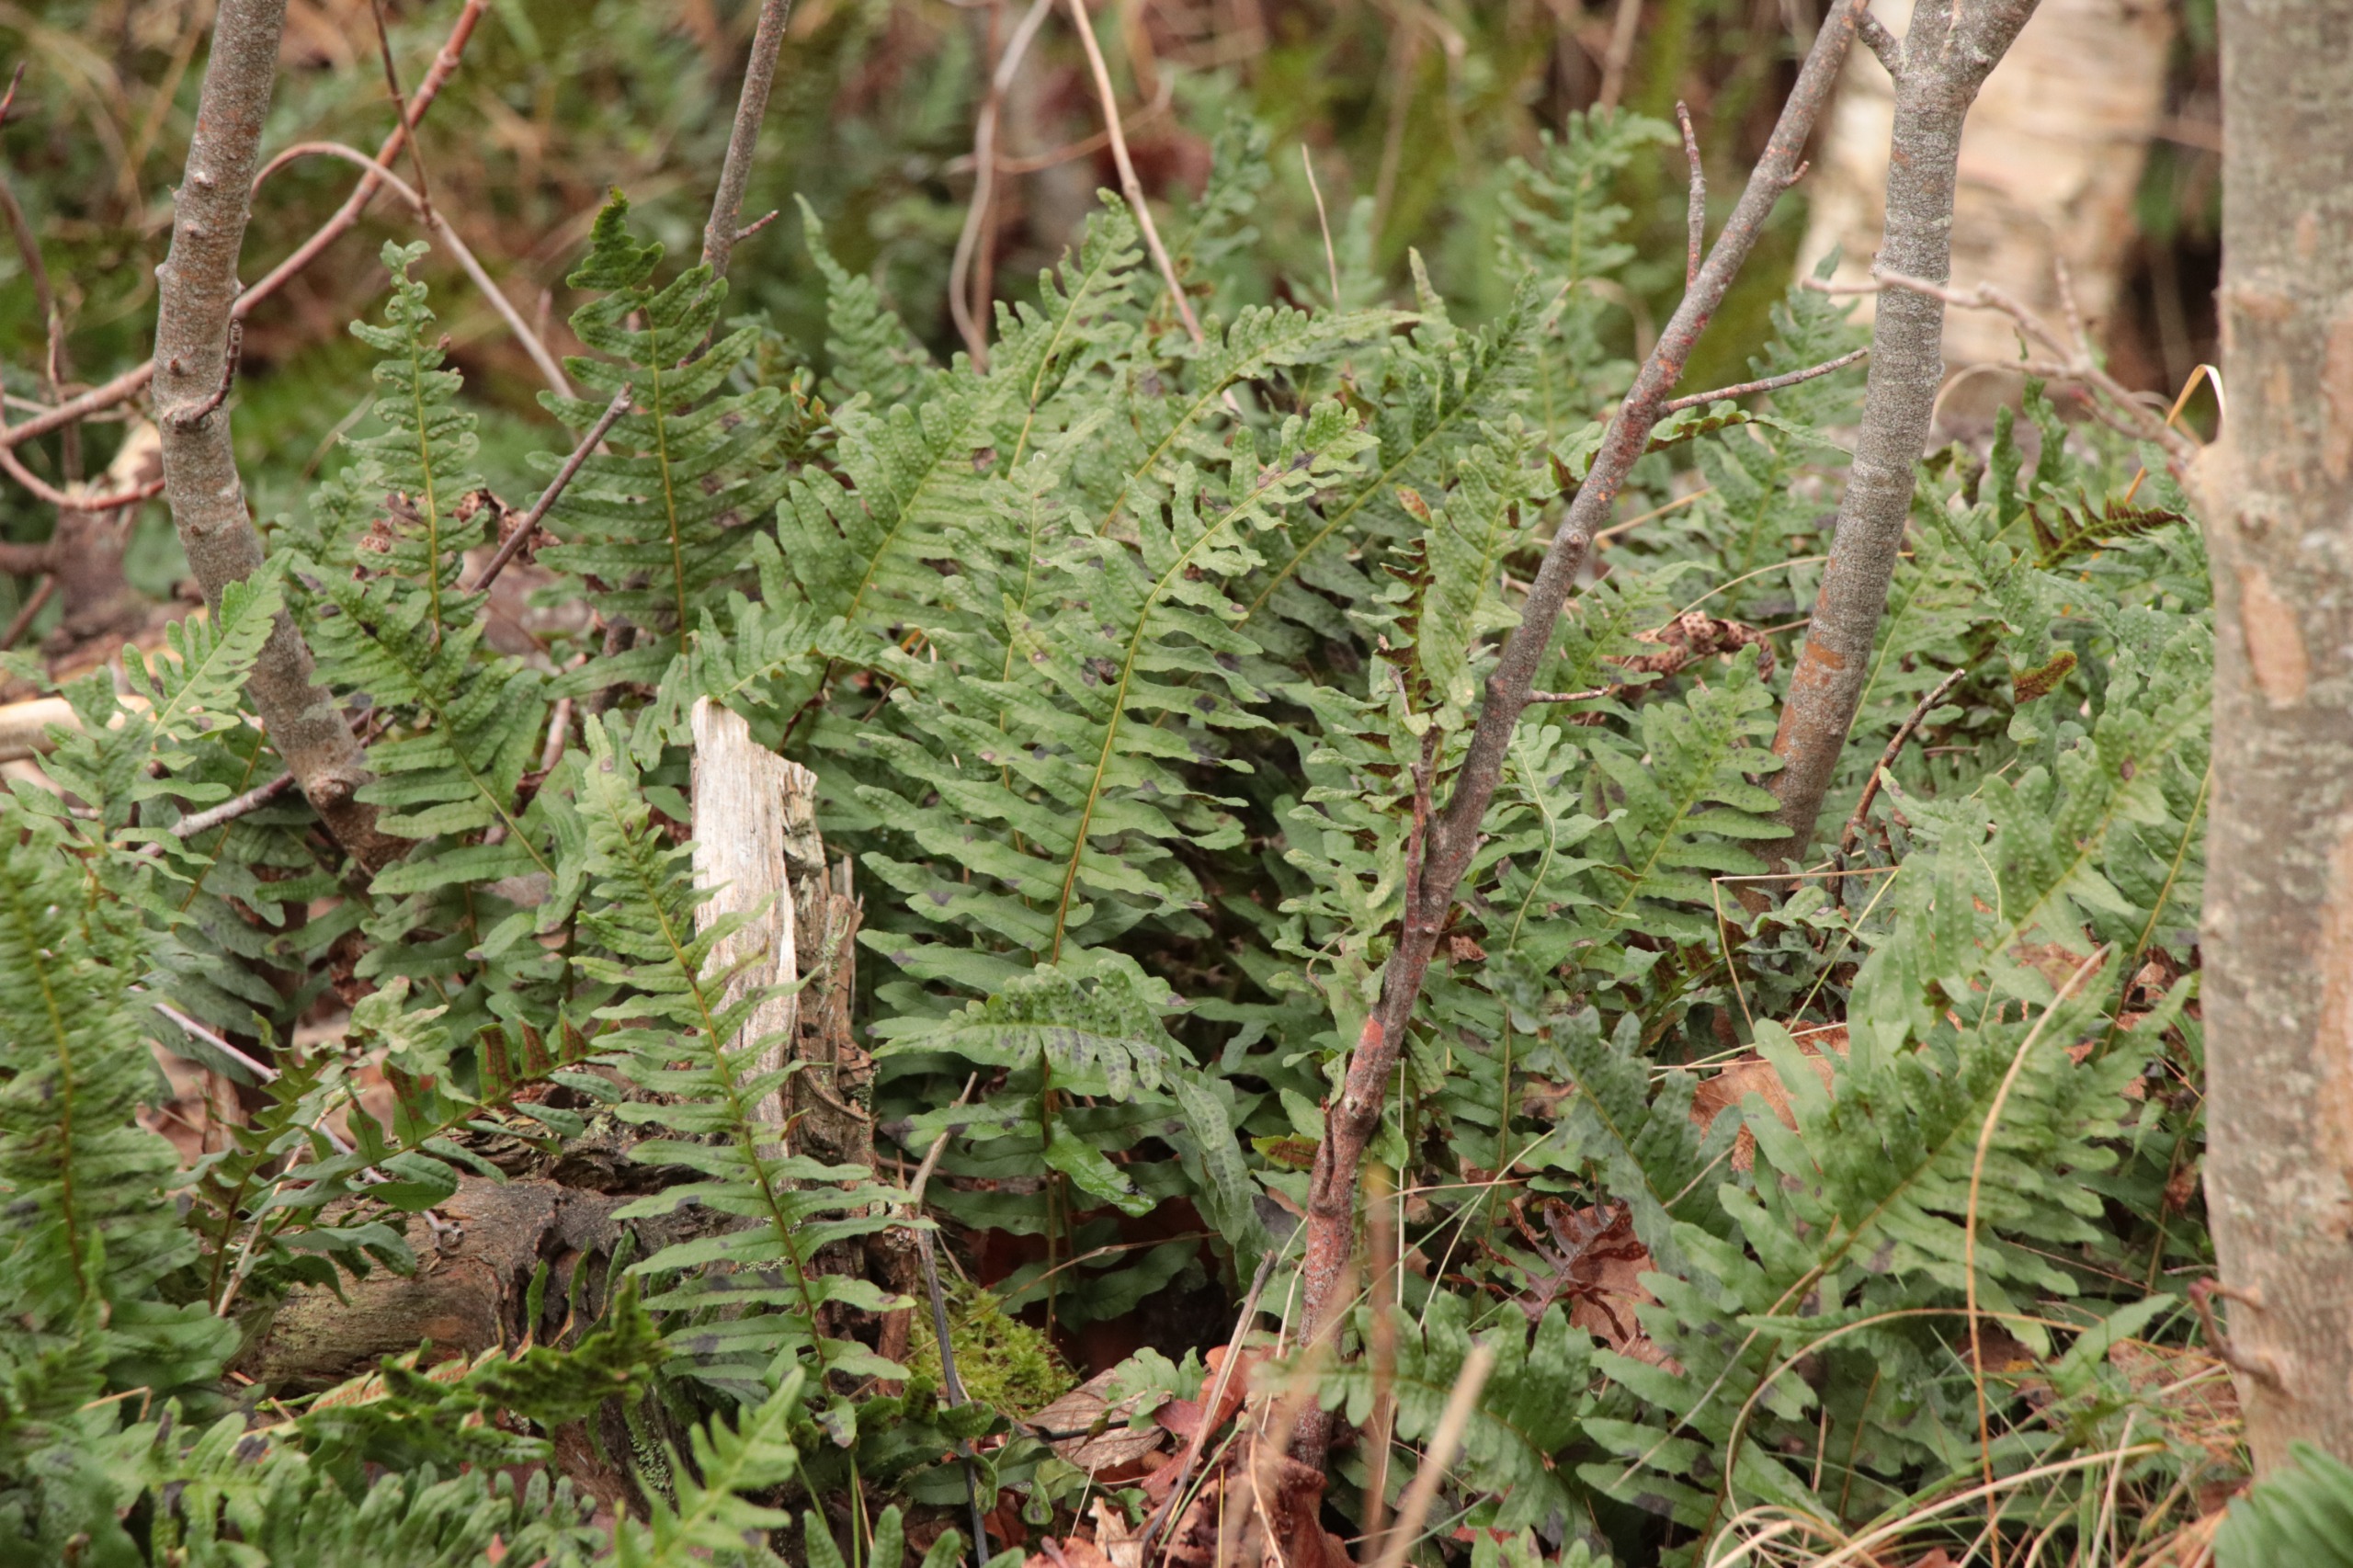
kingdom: Plantae
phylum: Tracheophyta
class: Polypodiopsida
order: Polypodiales
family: Polypodiaceae
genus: Polypodium
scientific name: Polypodium vulgare
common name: Almindelig engelsød
